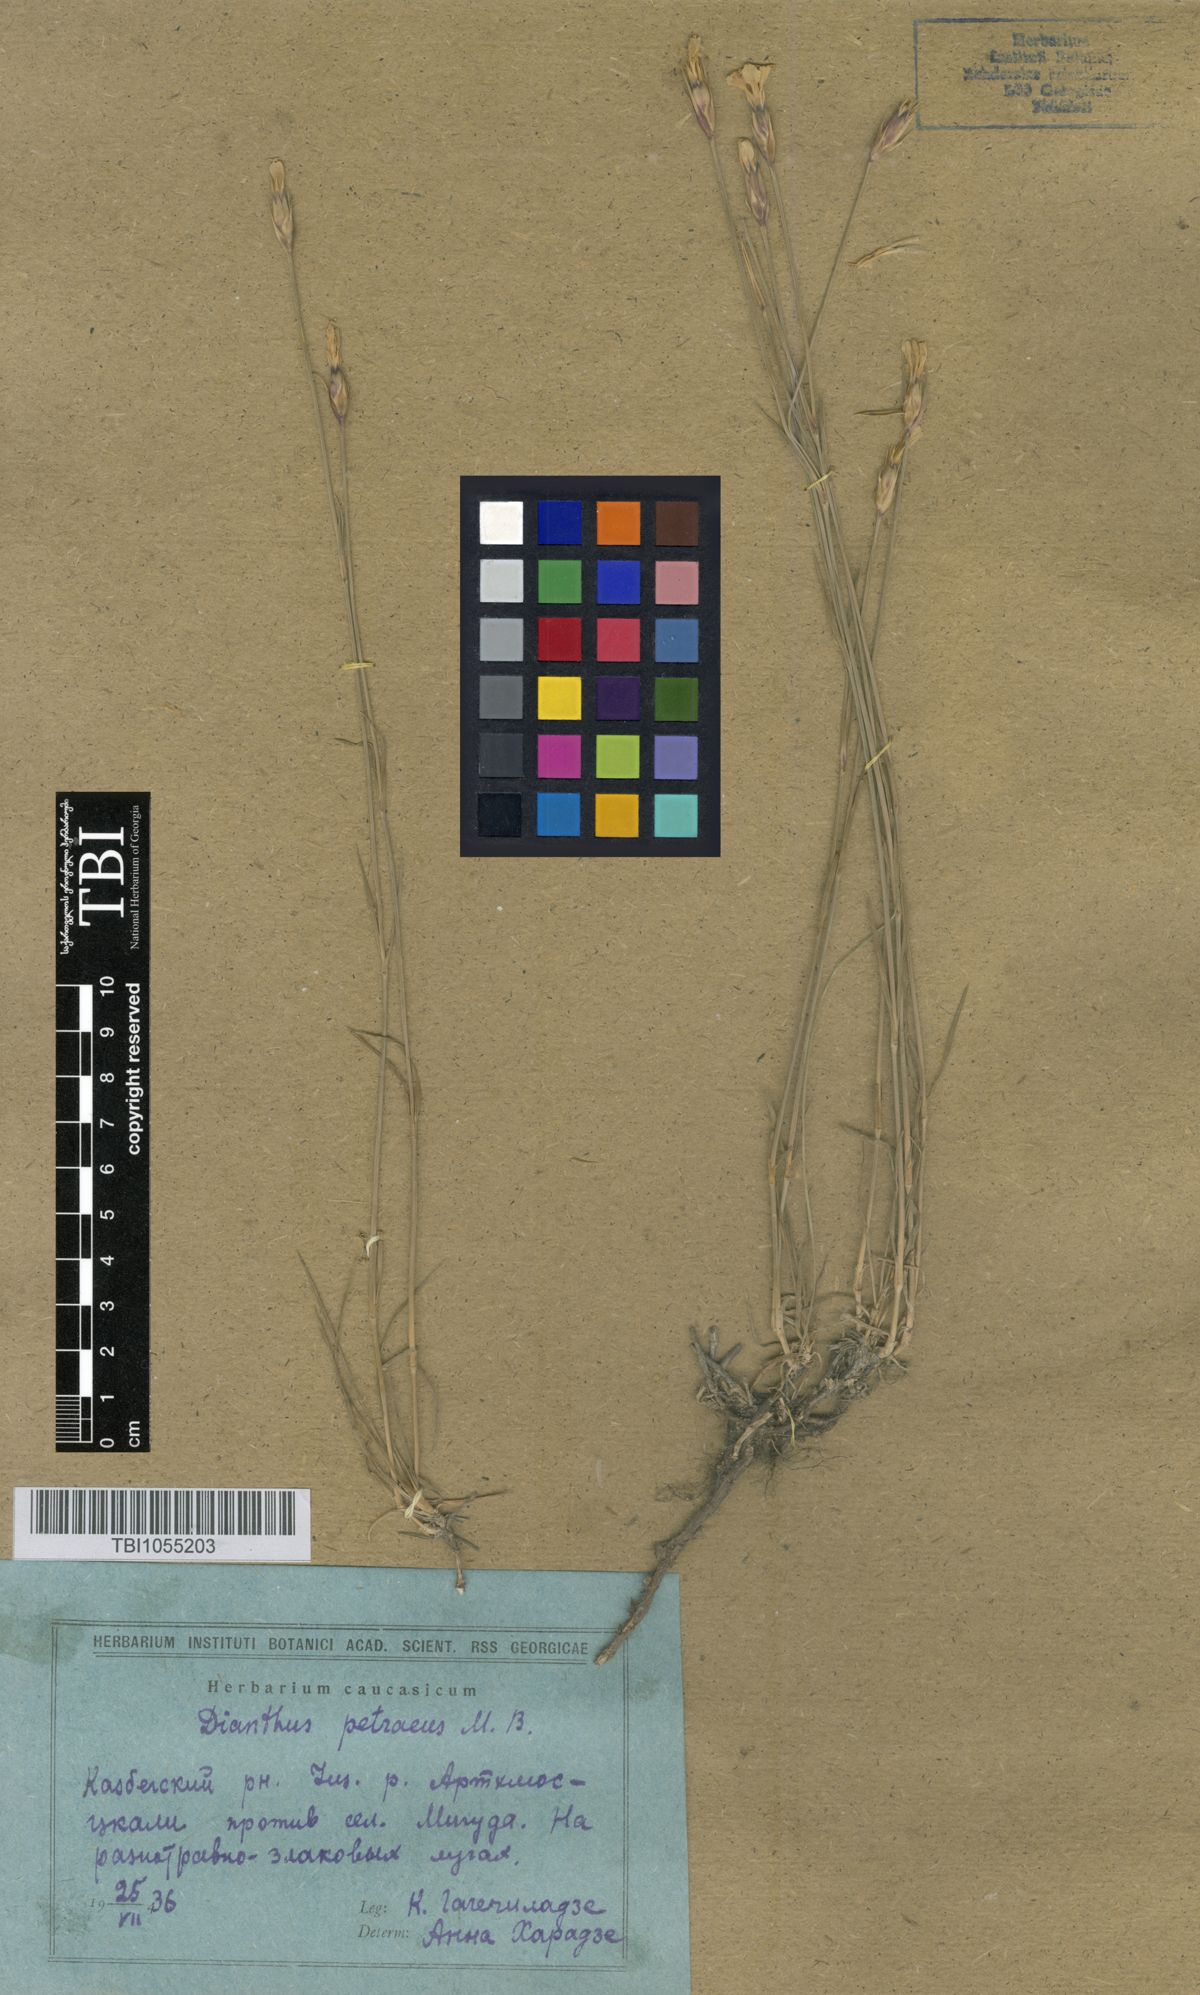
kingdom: Plantae
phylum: Tracheophyta
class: Magnoliopsida
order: Caryophyllales
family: Caryophyllaceae
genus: Dianthus
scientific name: Dianthus cretaceus
